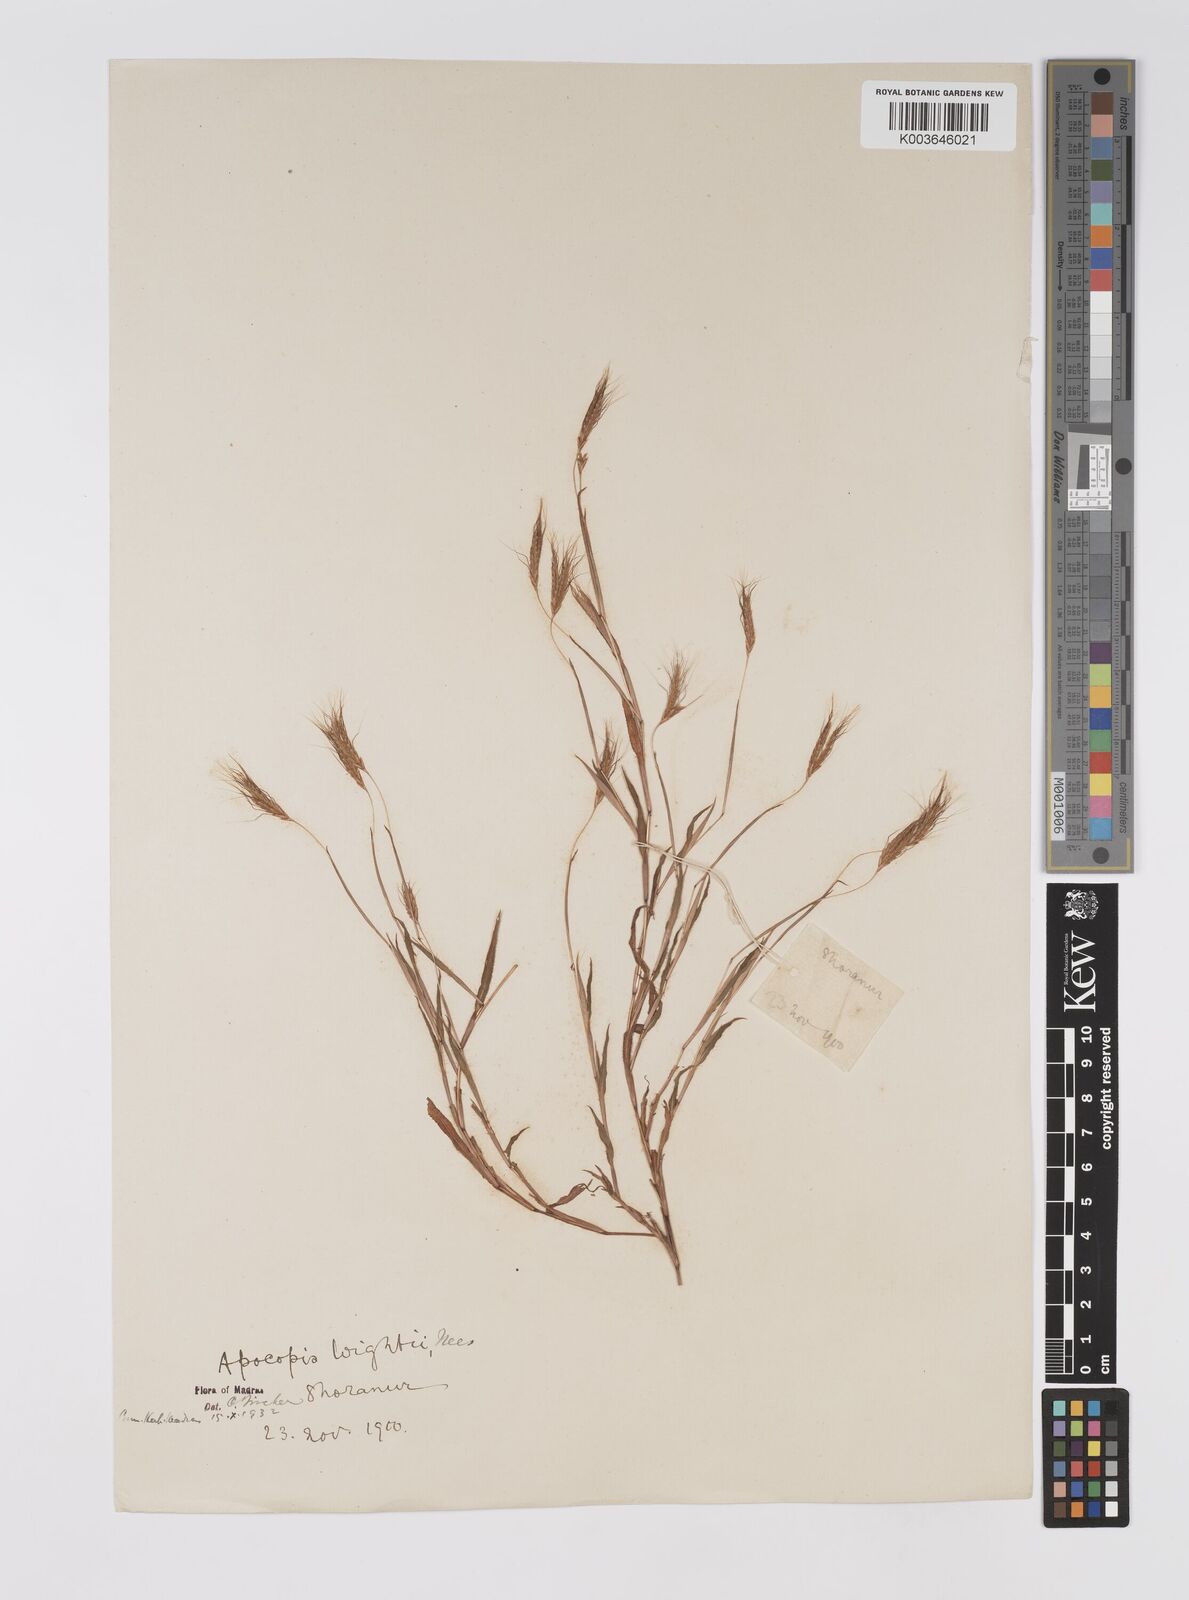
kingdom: Plantae
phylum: Tracheophyta
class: Liliopsida
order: Poales
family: Poaceae
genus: Apocopis
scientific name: Apocopis mangalorensis
